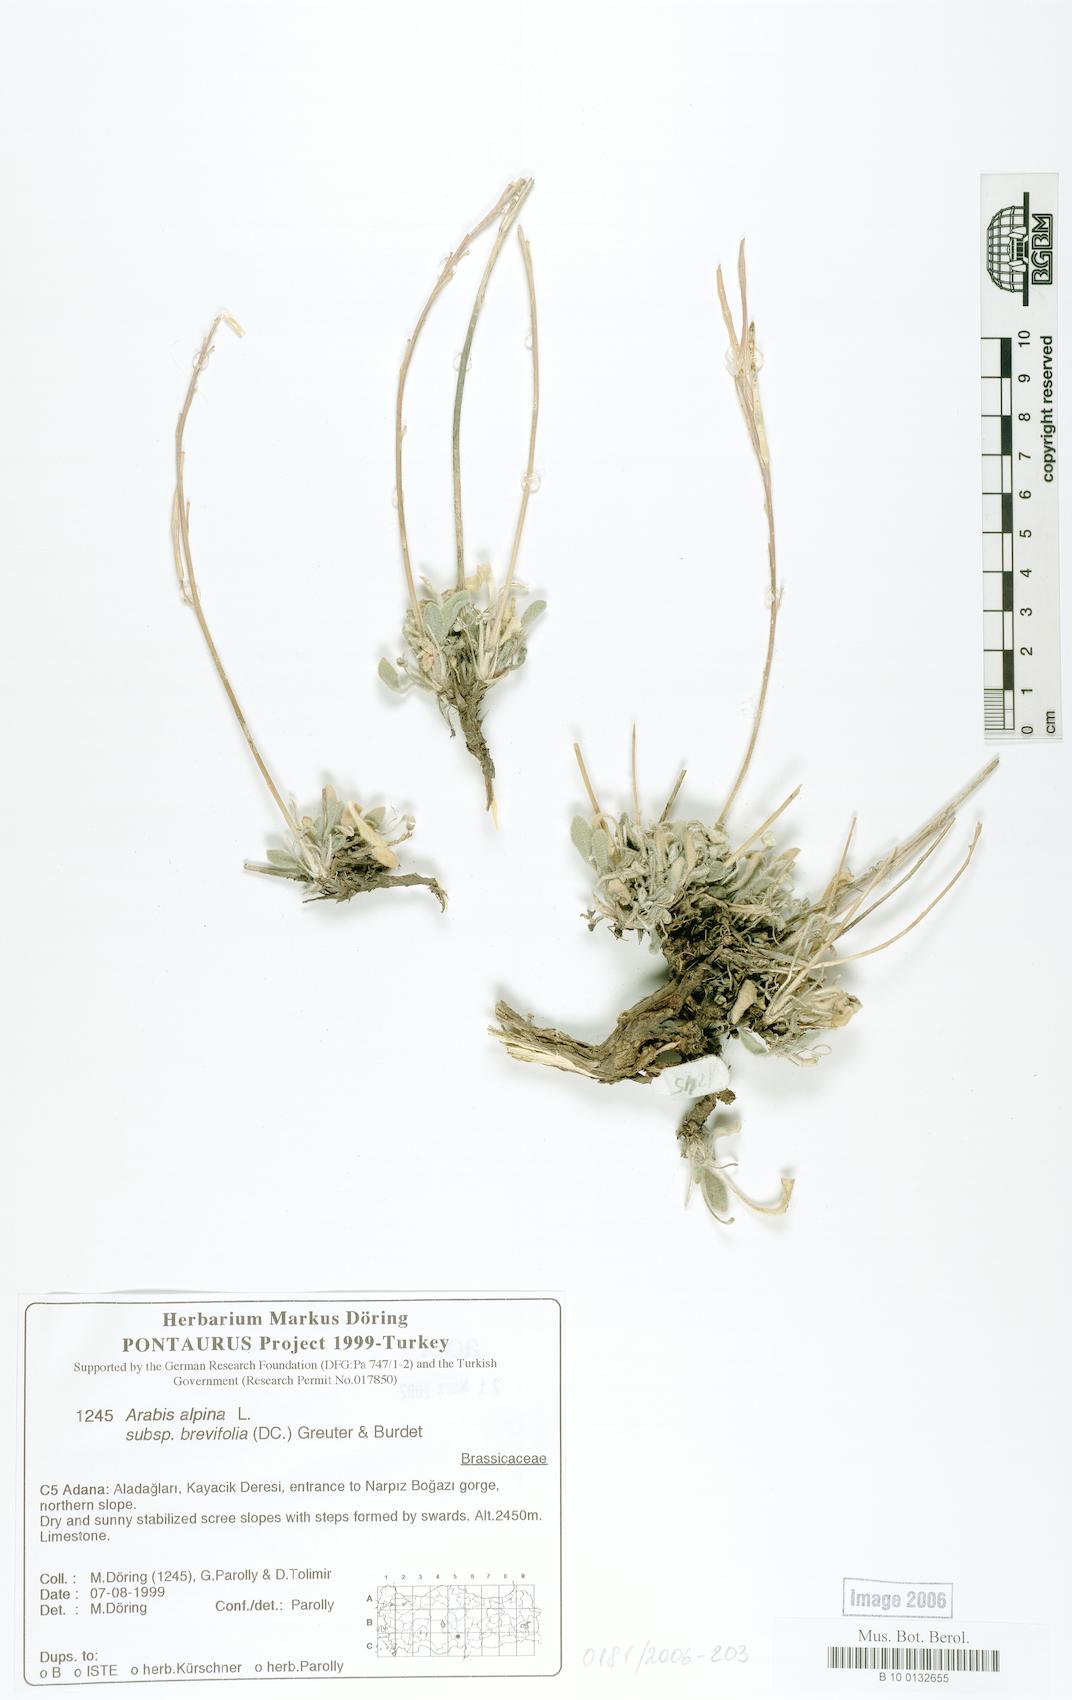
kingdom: Plantae
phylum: Tracheophyta
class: Magnoliopsida
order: Brassicales
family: Brassicaceae
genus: Arabis
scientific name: Arabis caucasica
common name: Gray rockcress
